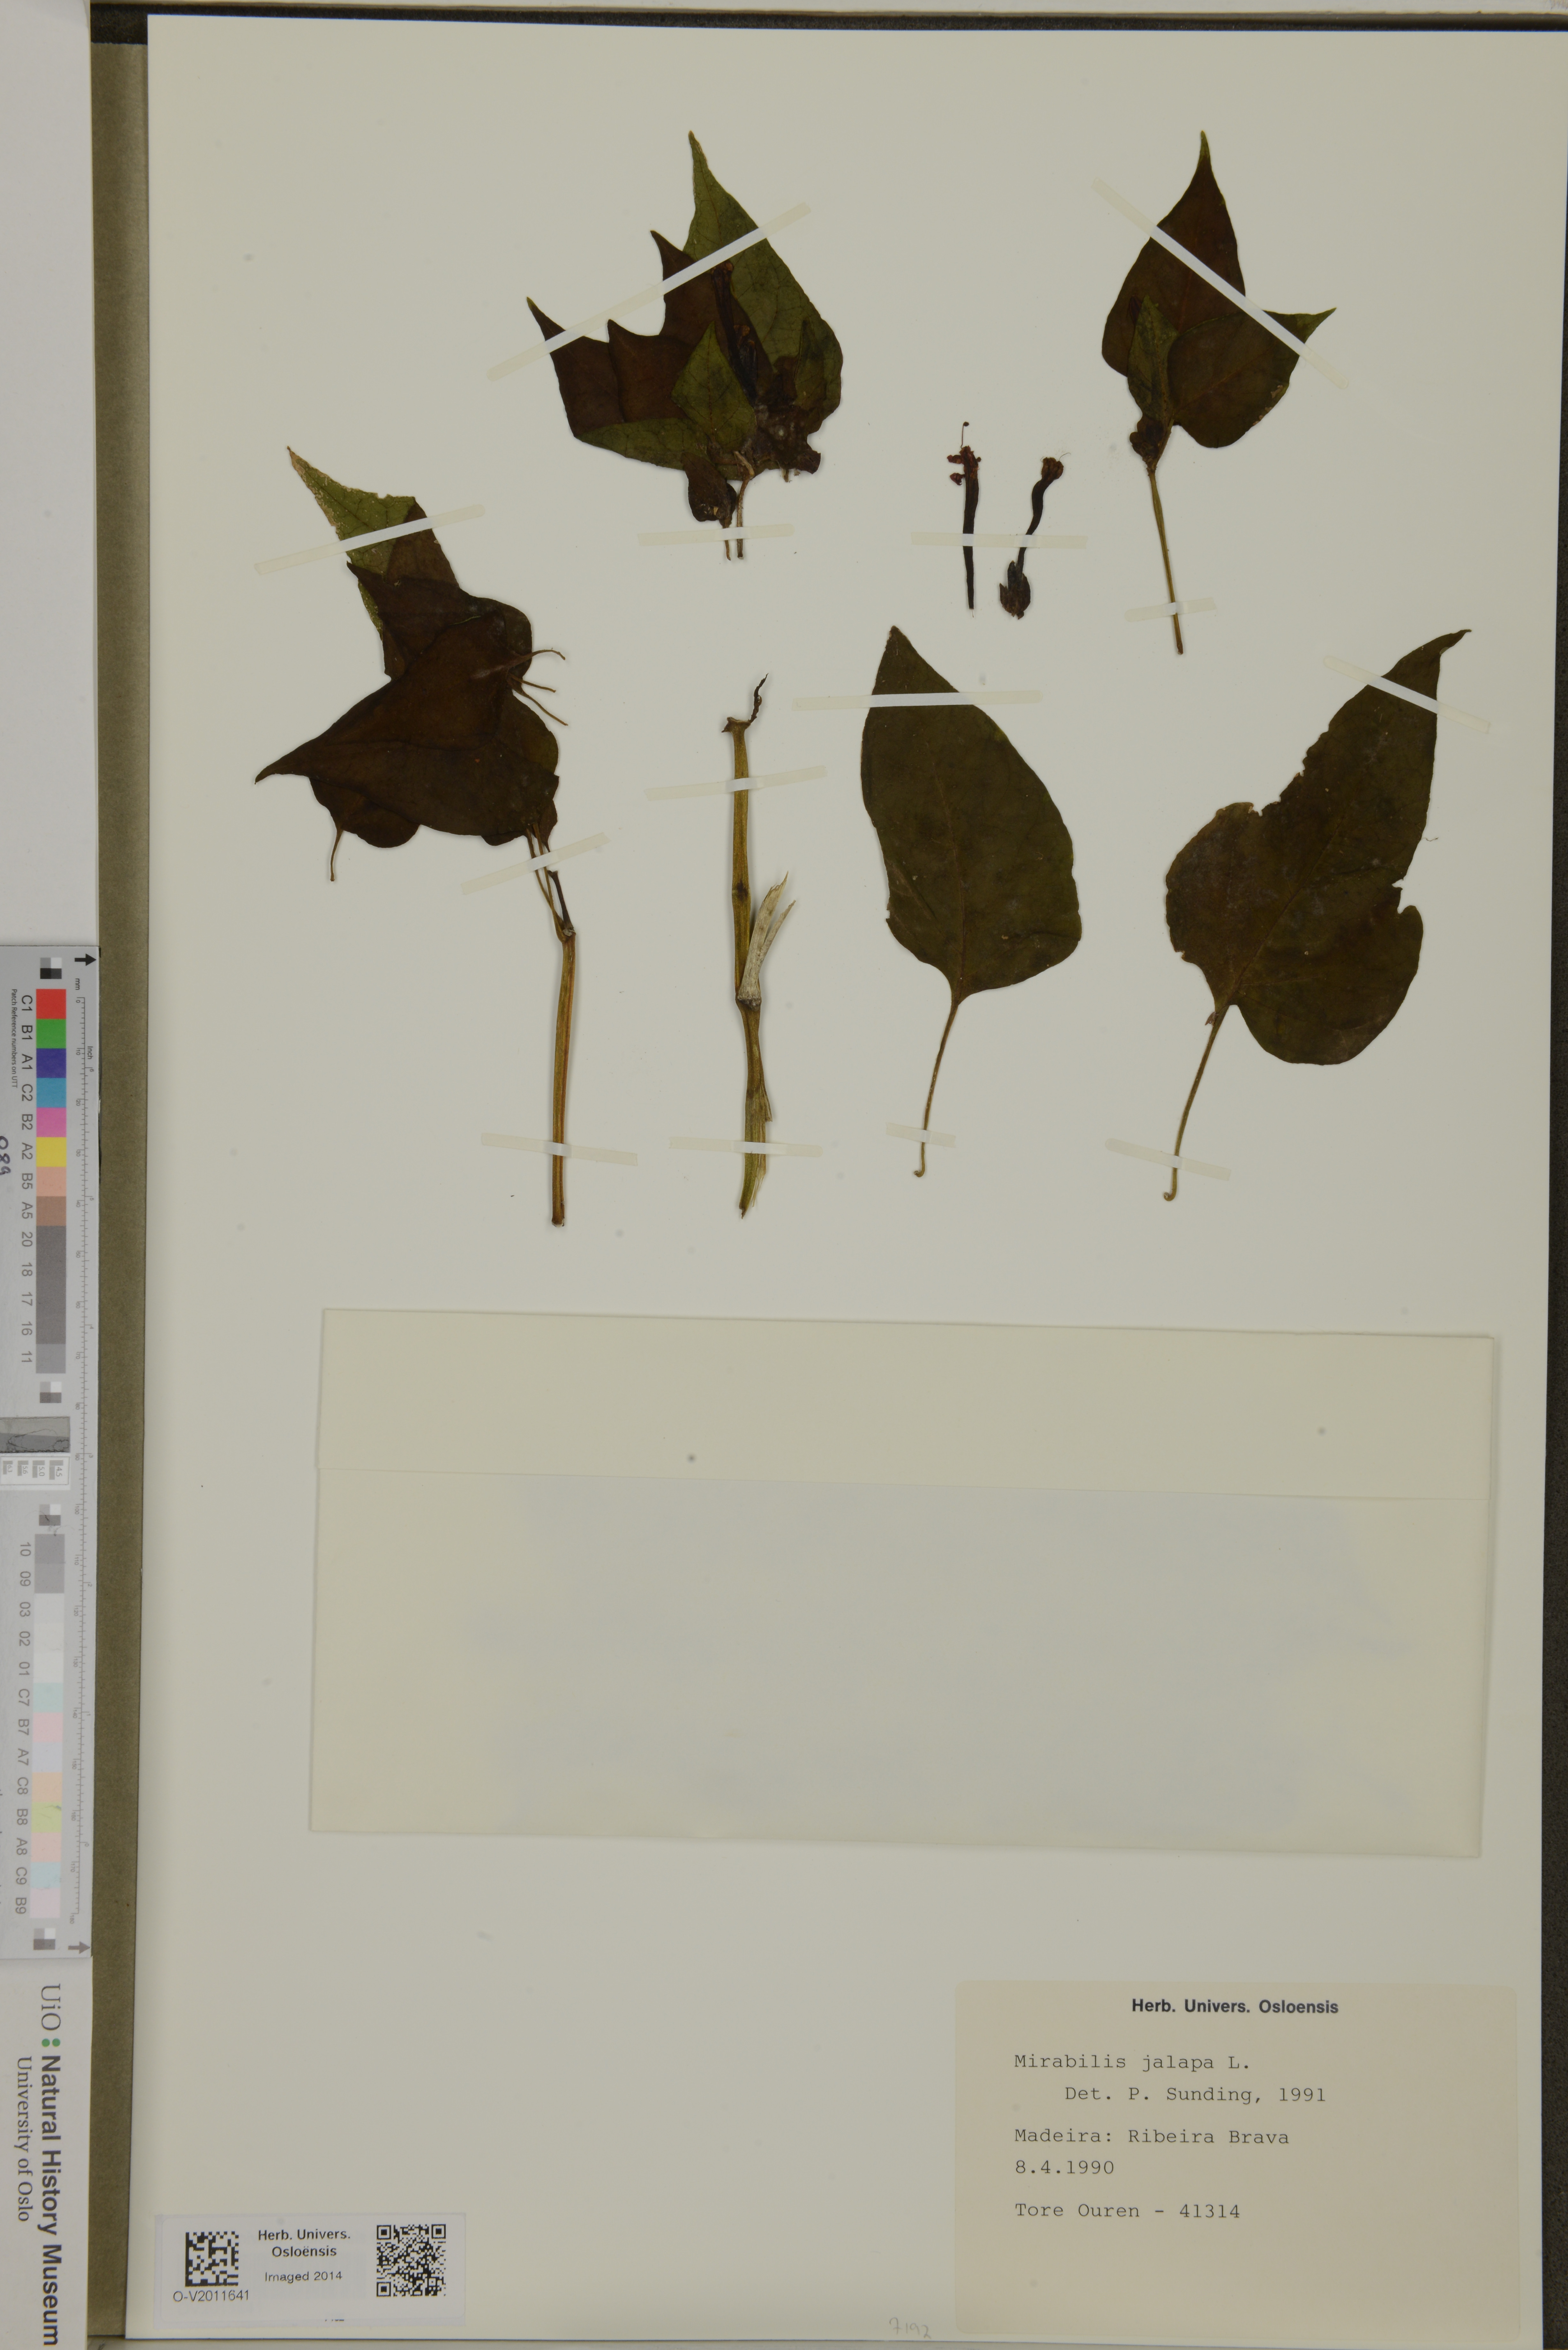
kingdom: Plantae
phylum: Tracheophyta
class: Magnoliopsida
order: Caryophyllales
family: Nyctaginaceae
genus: Mirabilis
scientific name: Mirabilis jalapa
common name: Marvel-of-peru
